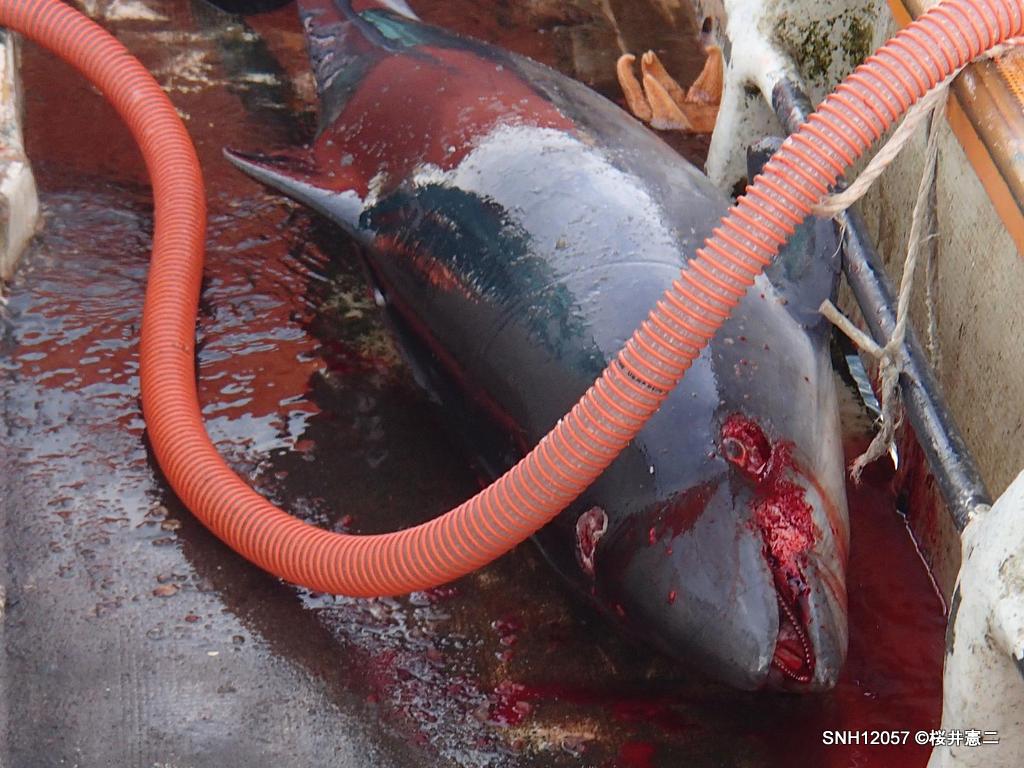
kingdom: Animalia
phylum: Chordata
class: Mammalia
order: Cetacea
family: Phocoenidae
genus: Phocoena
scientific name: Phocoena phocoena
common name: Harbour porpoise
